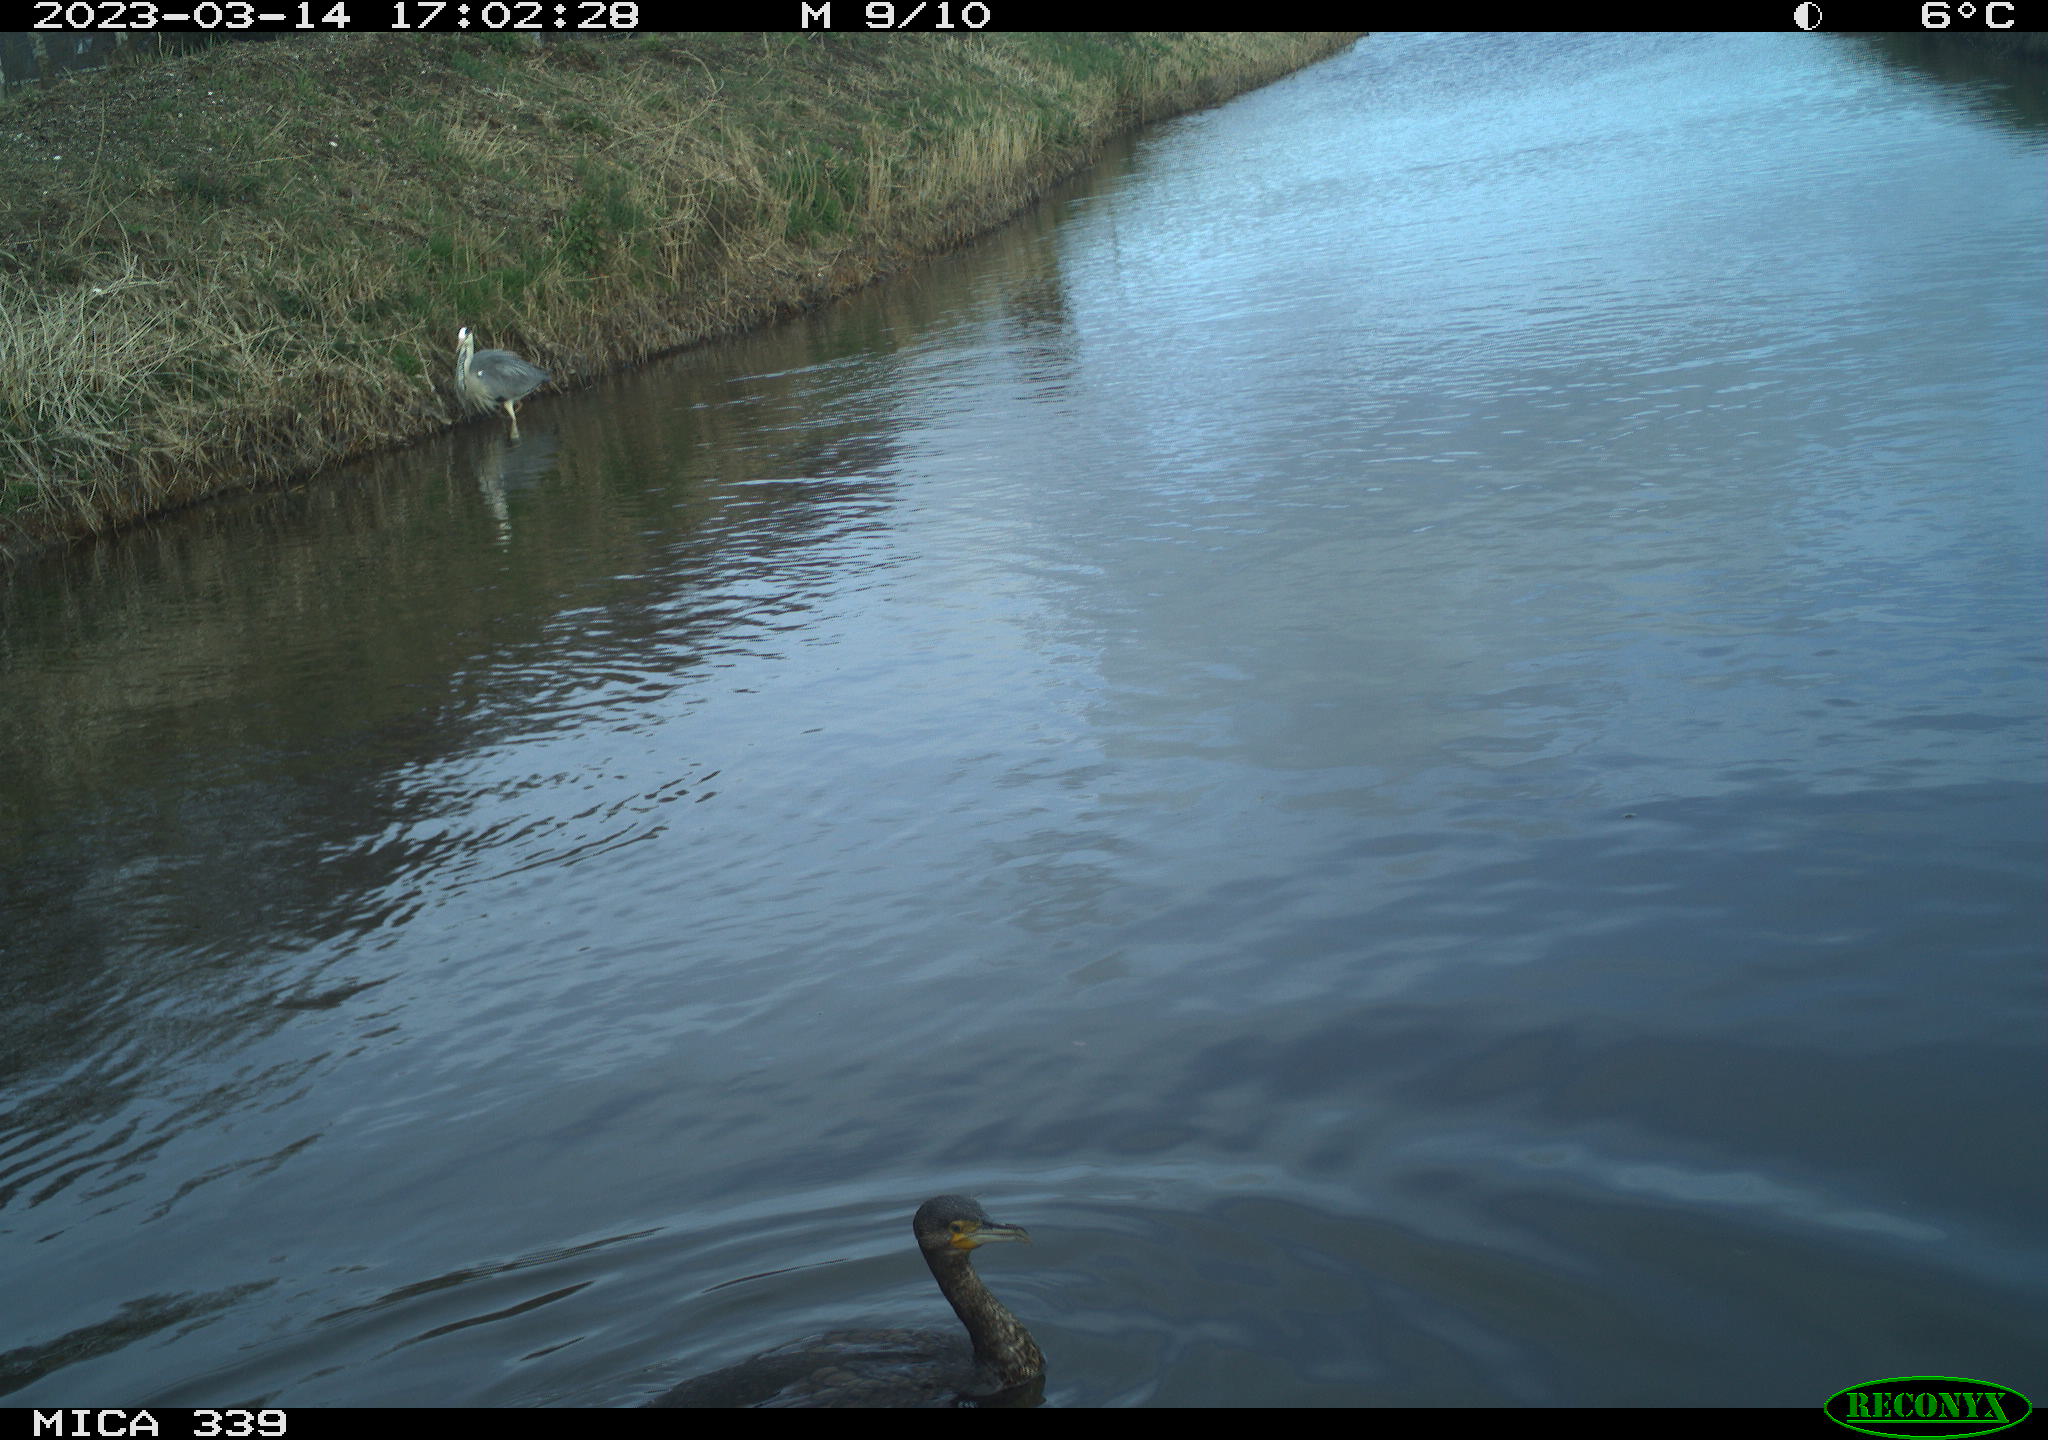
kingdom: Animalia
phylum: Chordata
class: Aves
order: Gruiformes
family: Rallidae
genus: Fulica
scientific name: Fulica atra
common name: Eurasian coot
